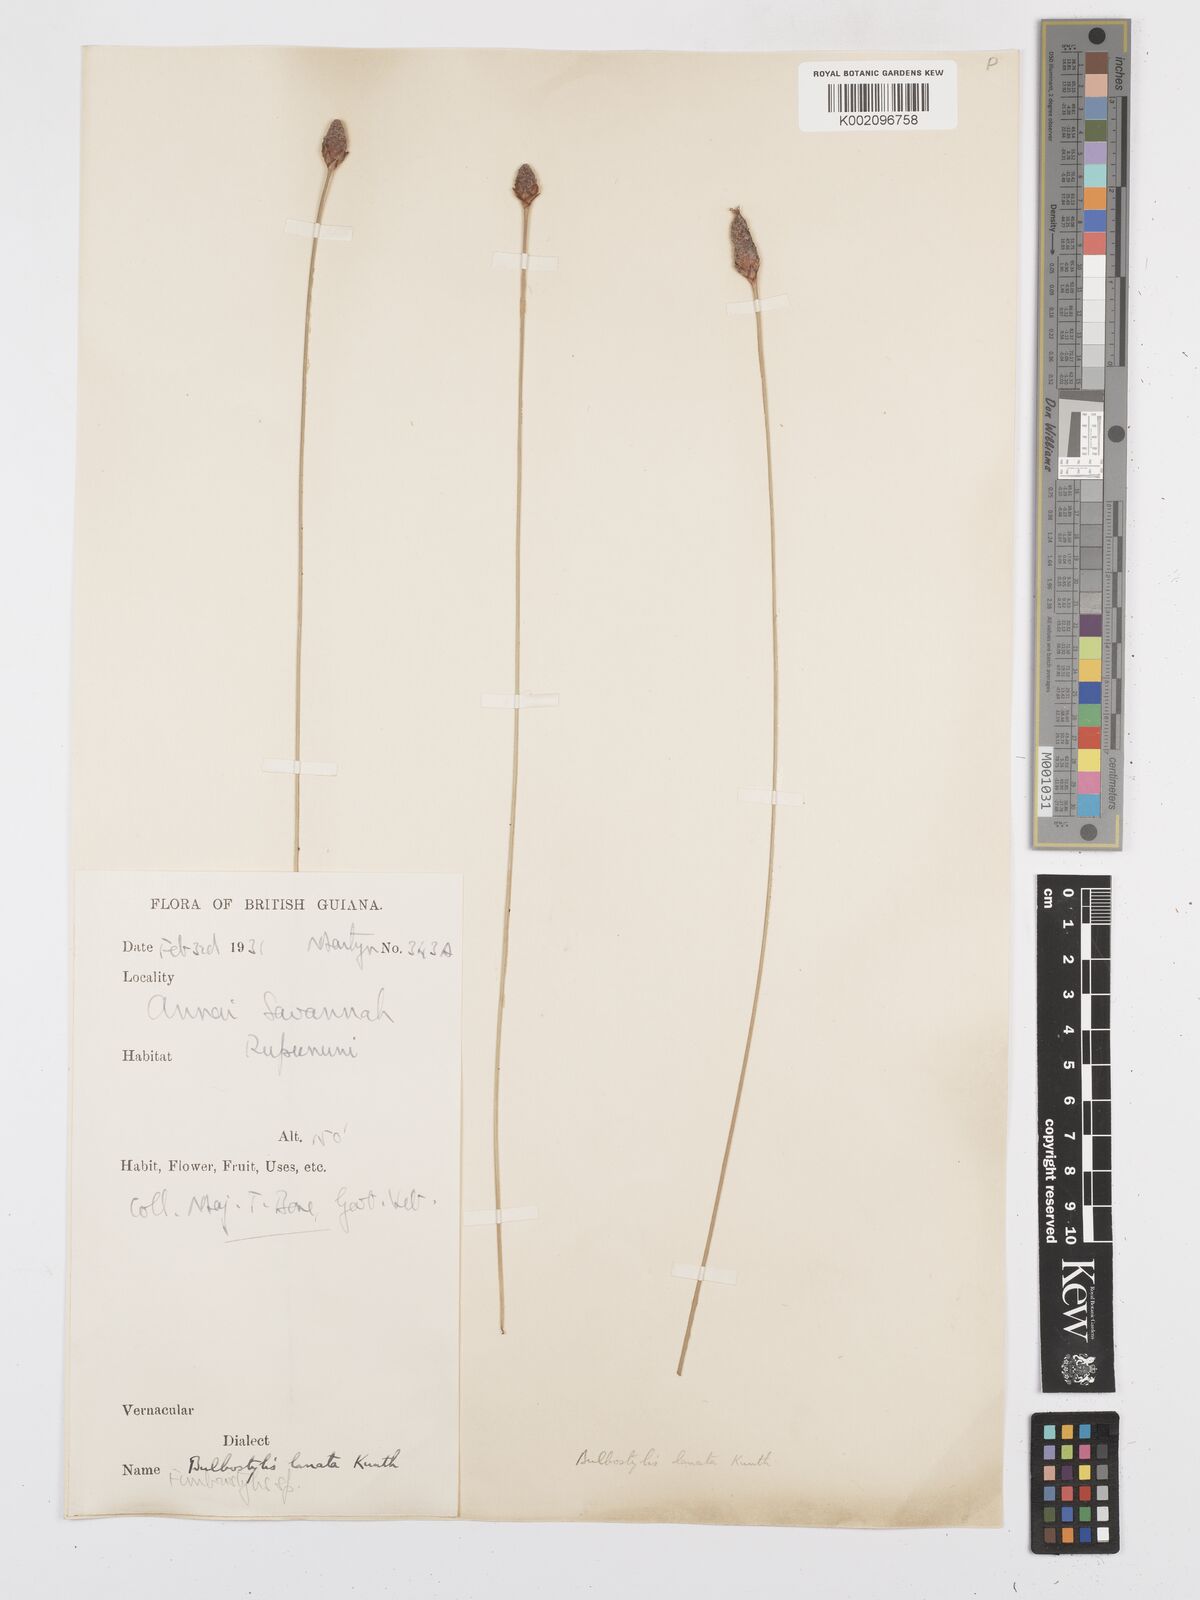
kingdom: Plantae
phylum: Tracheophyta
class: Liliopsida
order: Poales
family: Cyperaceae
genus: Bulbostylis
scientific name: Bulbostylis
